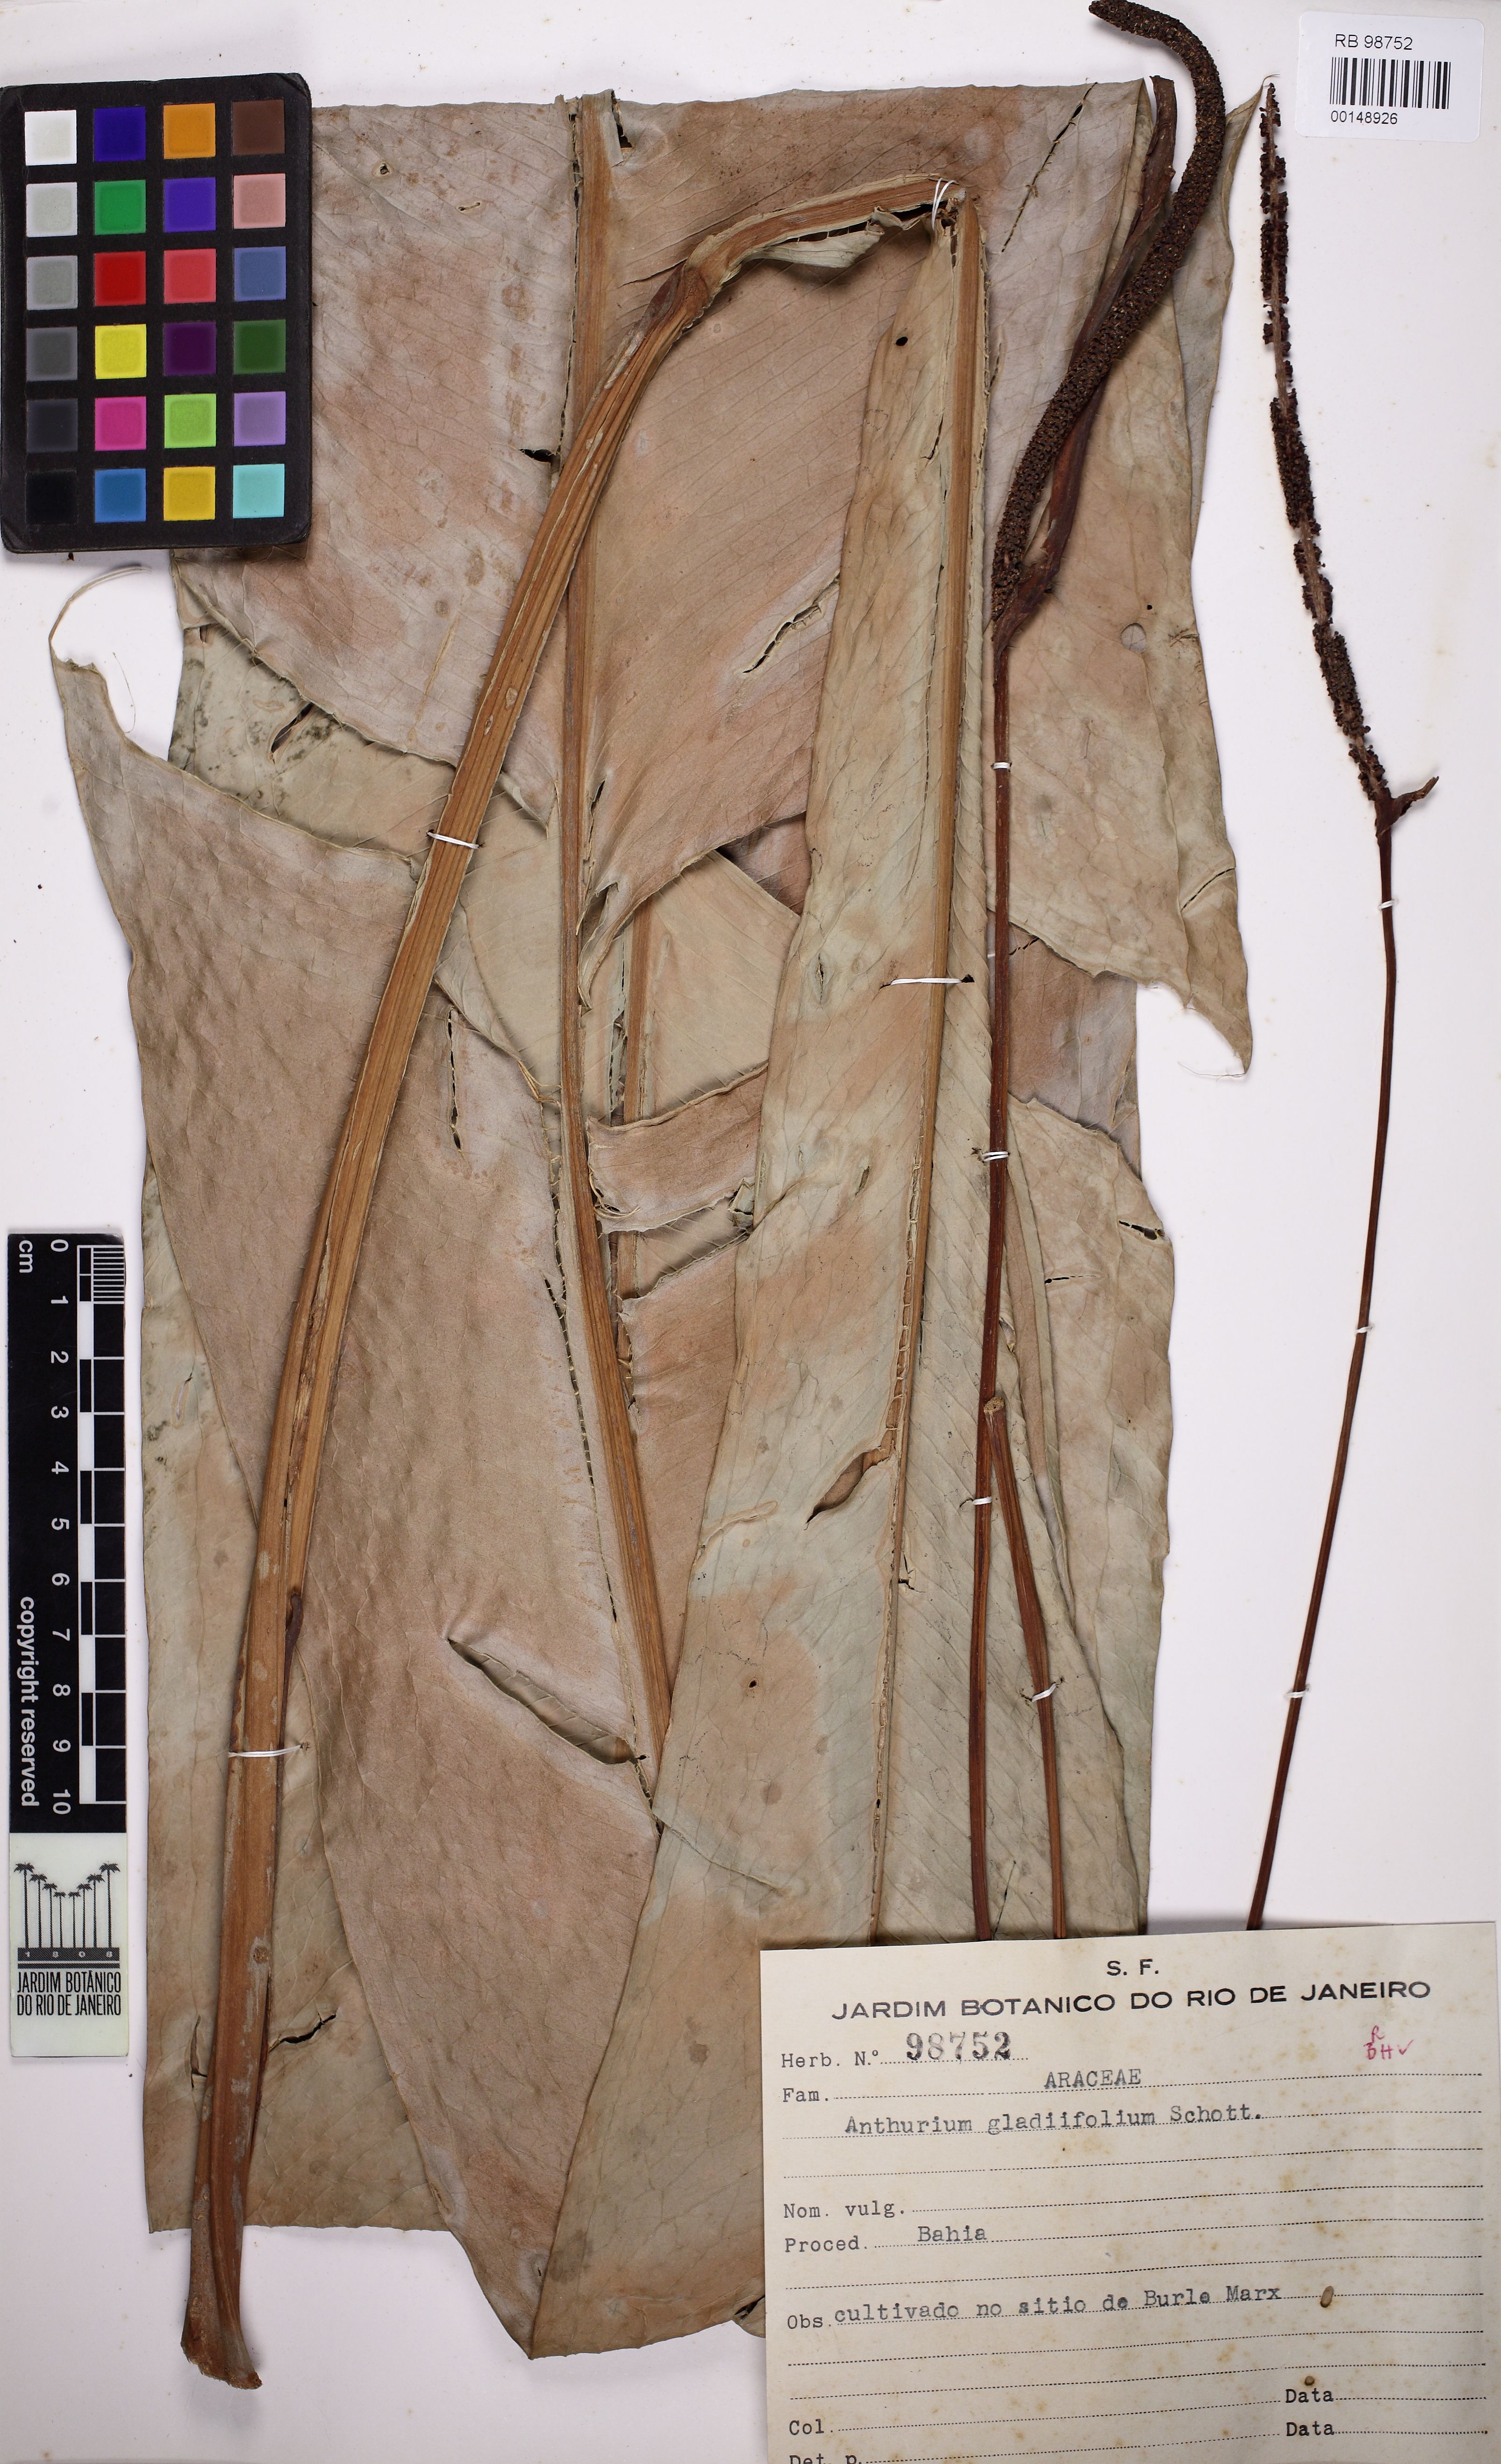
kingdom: Plantae
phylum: Tracheophyta
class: Liliopsida
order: Alismatales
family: Araceae
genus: Anthurium
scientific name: Anthurium gladiifolium
